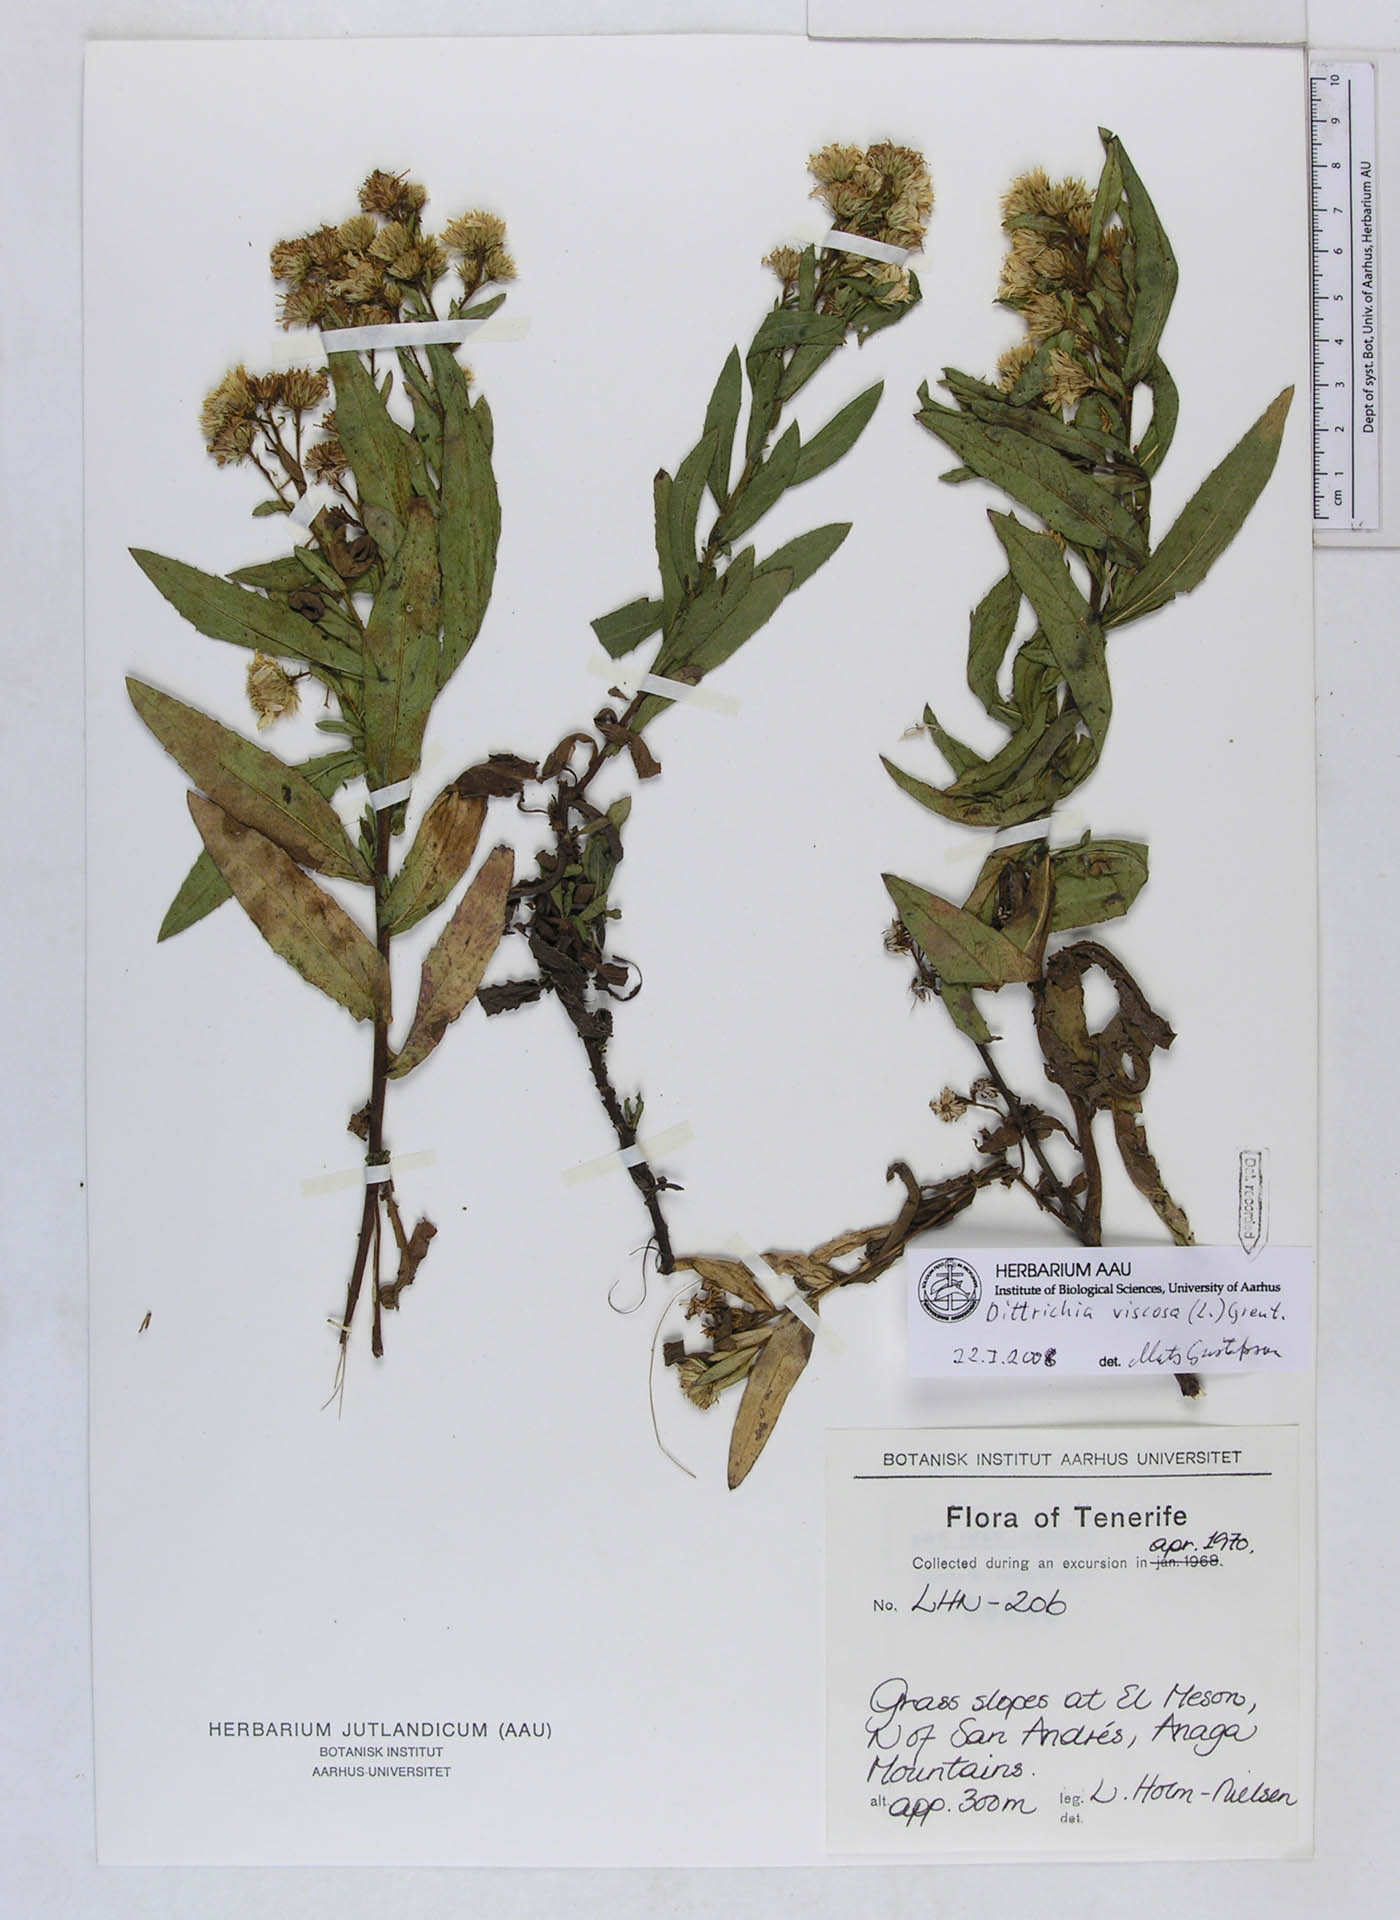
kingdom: Plantae
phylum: Tracheophyta
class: Magnoliopsida
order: Asterales
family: Asteraceae
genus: Dittrichia
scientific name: Dittrichia viscosa
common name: Woody fleabane
